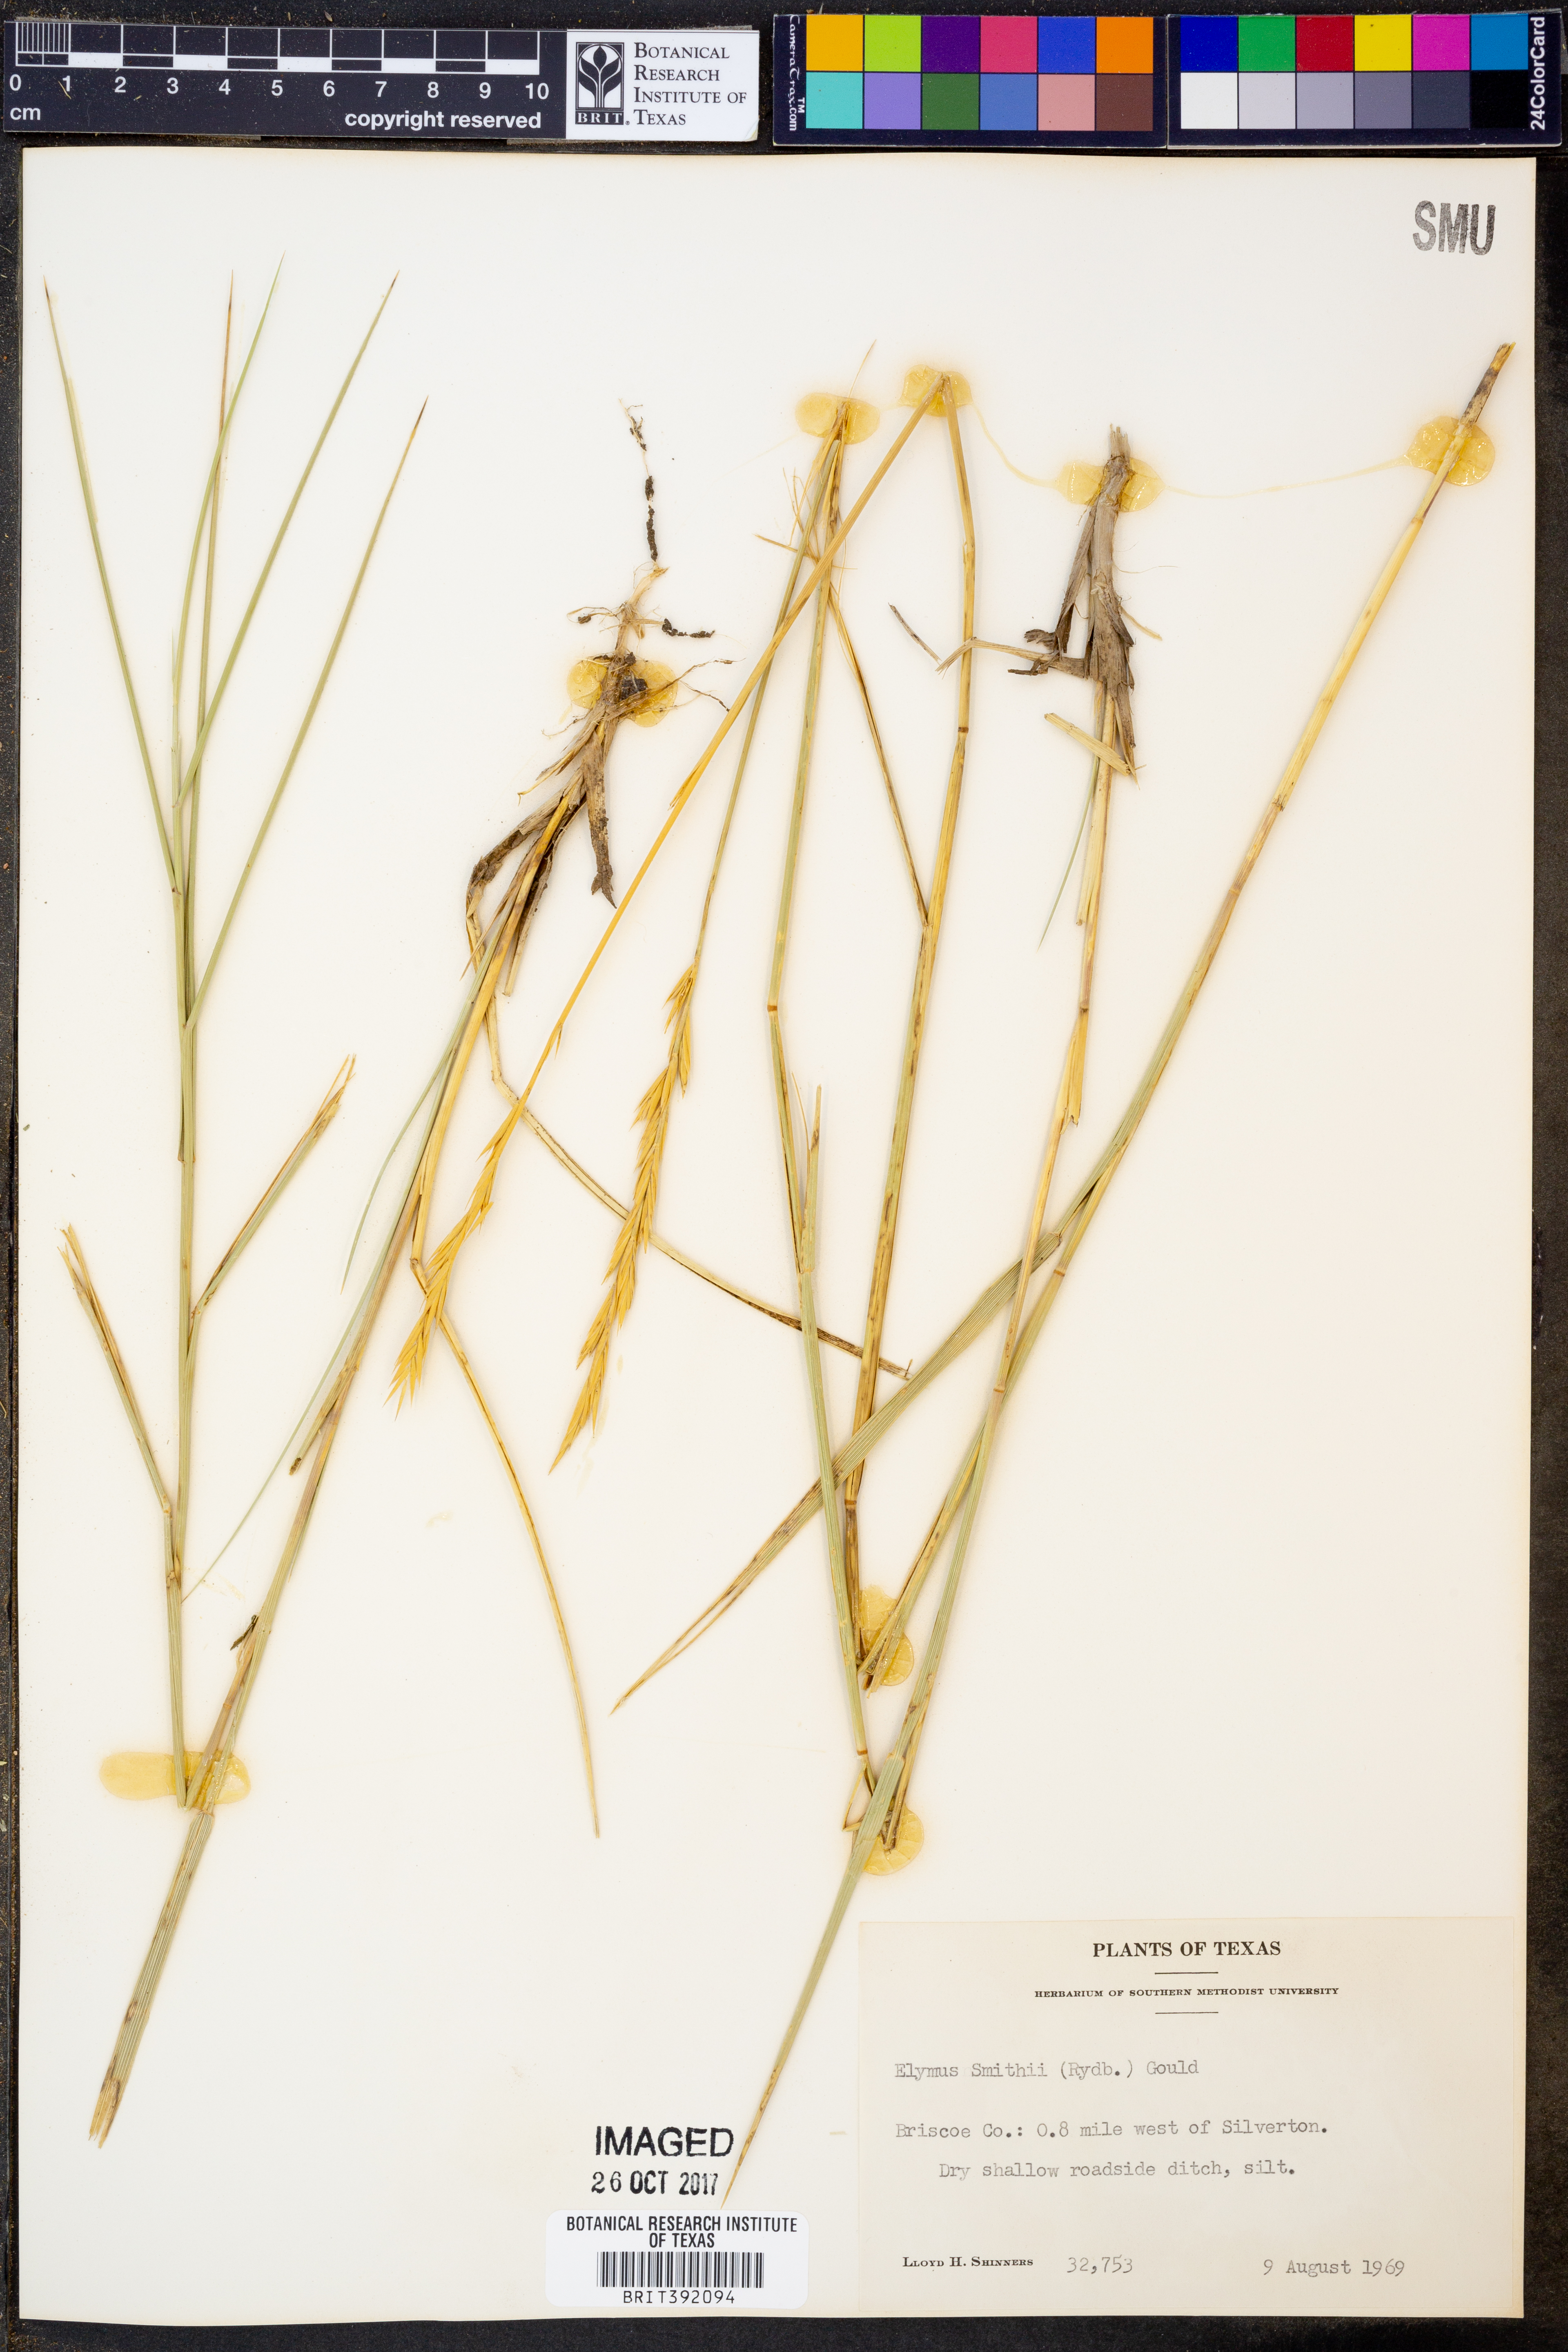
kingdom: Plantae
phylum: Tracheophyta
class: Liliopsida
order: Poales
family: Poaceae
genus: Elymus
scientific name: Elymus smithii
